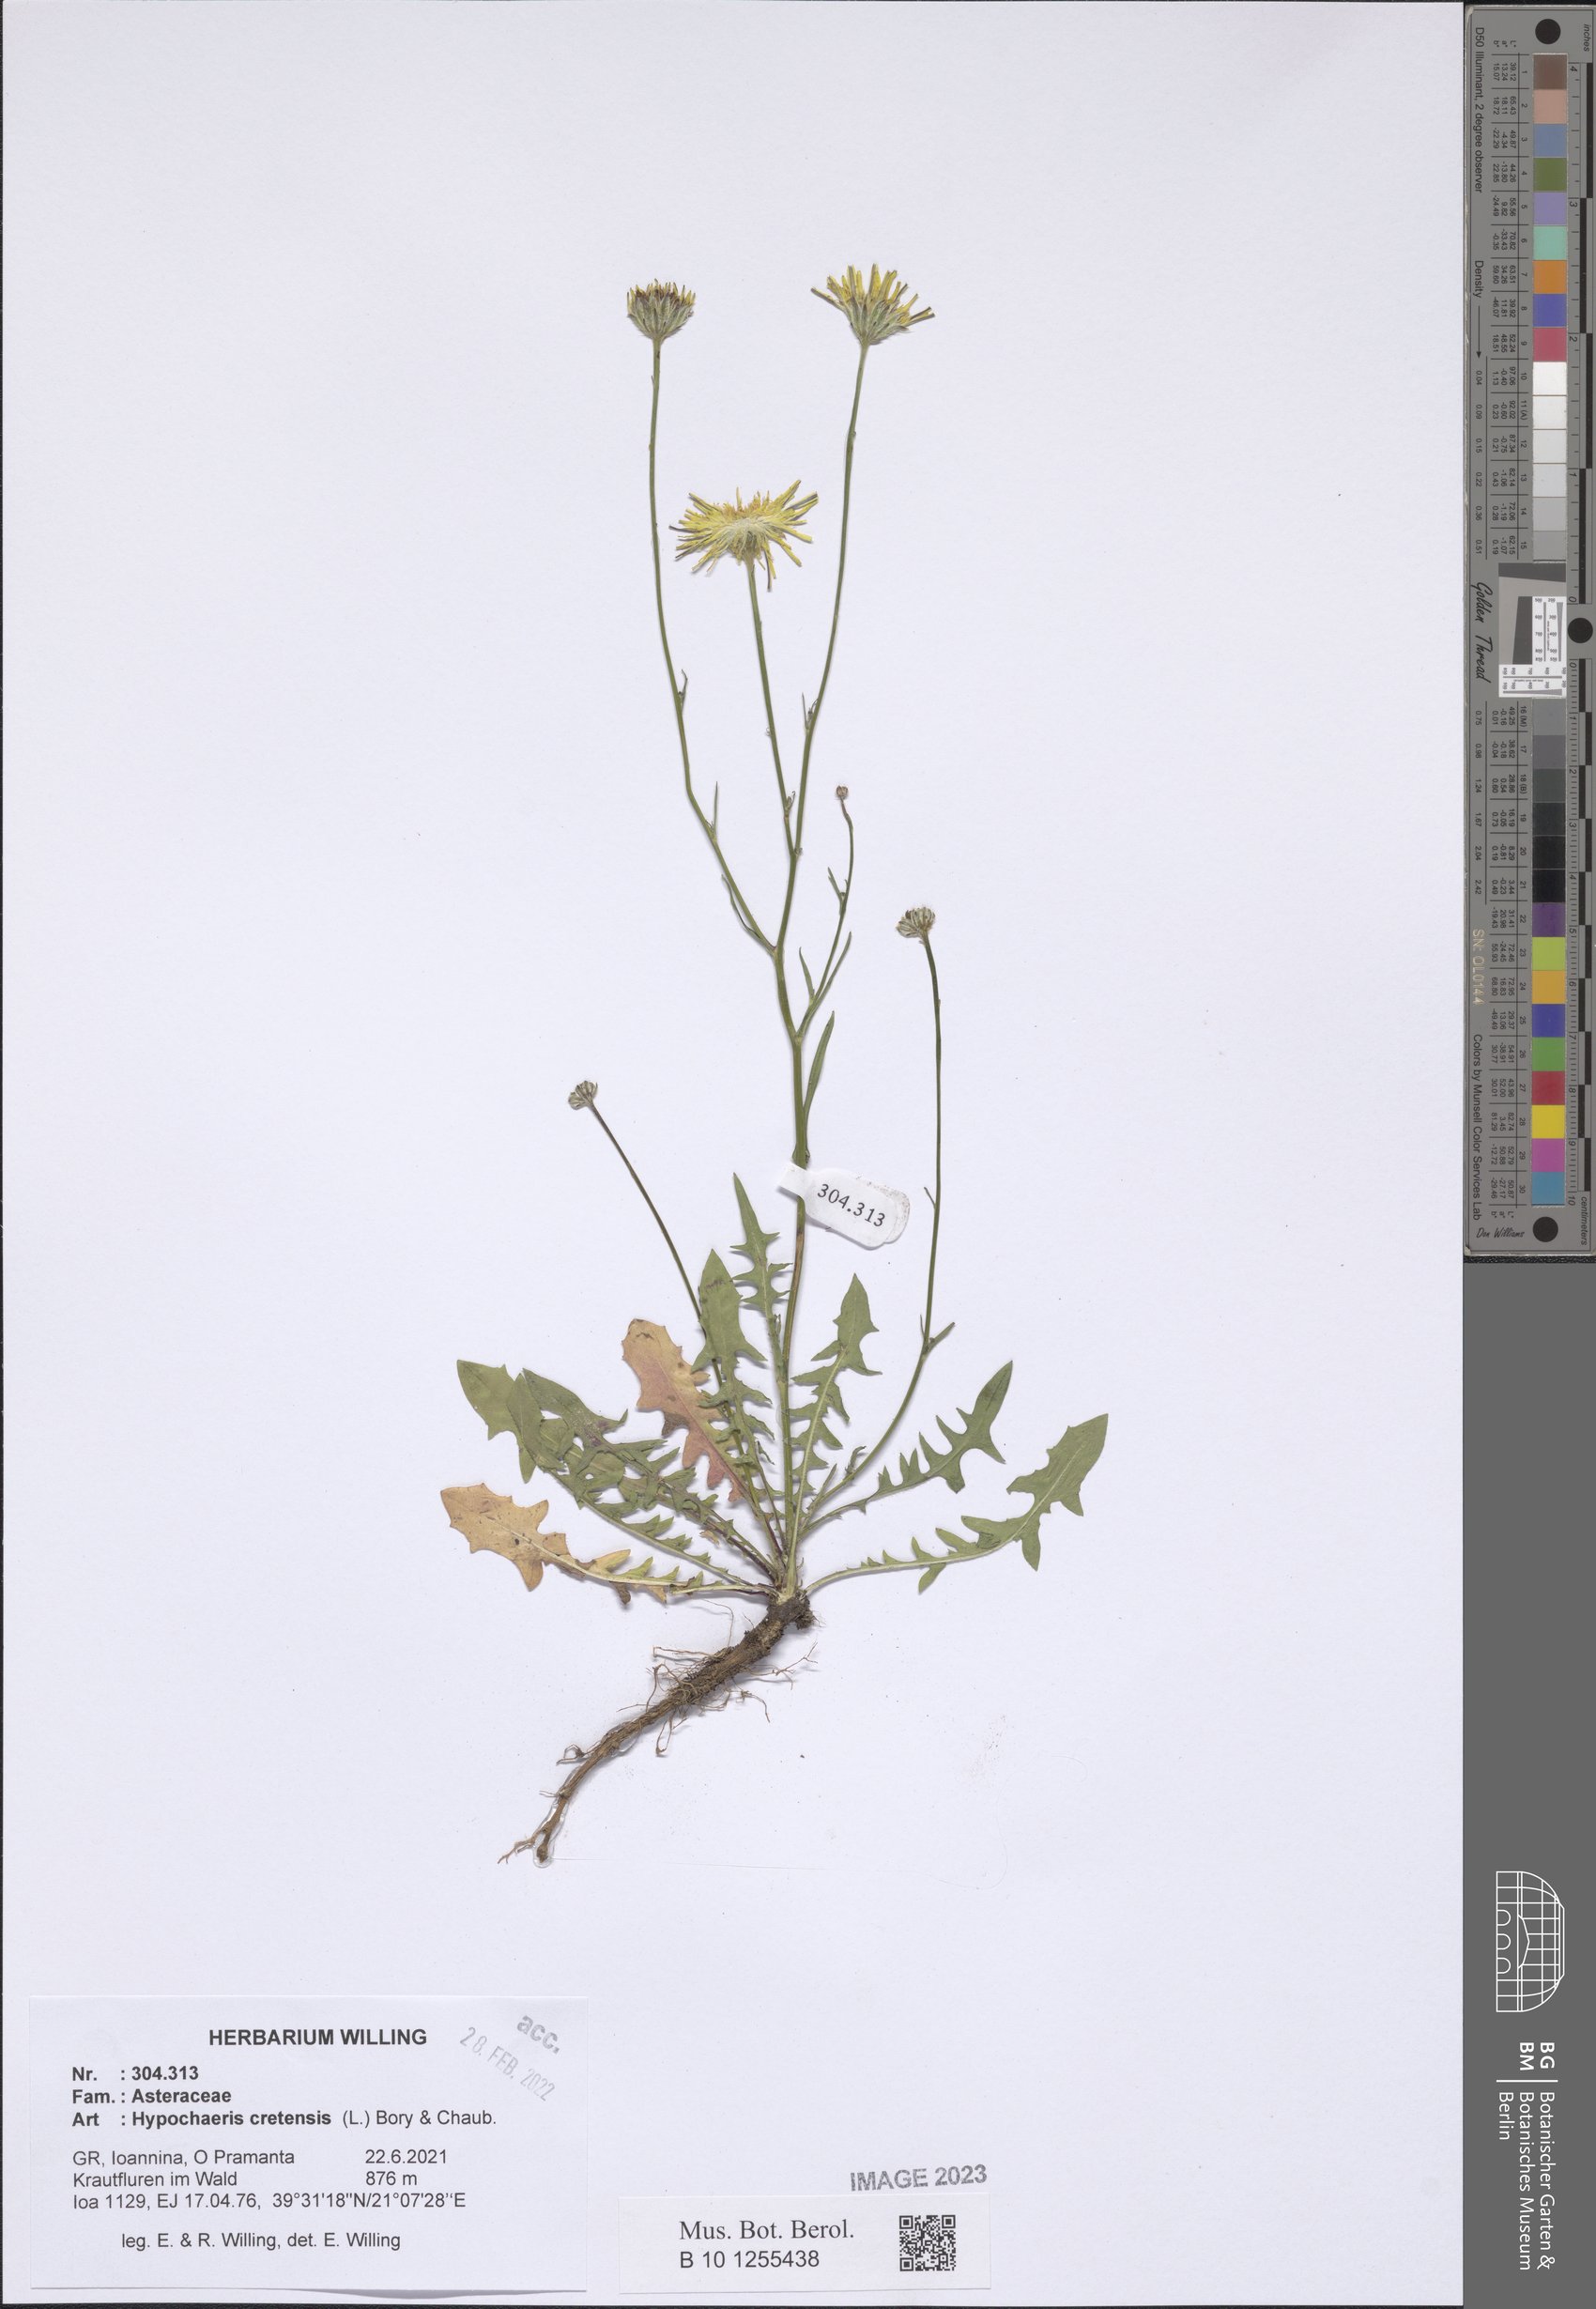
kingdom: Plantae
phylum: Tracheophyta
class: Magnoliopsida
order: Asterales
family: Asteraceae
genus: Hypochaeris
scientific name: Hypochaeris cretensis
